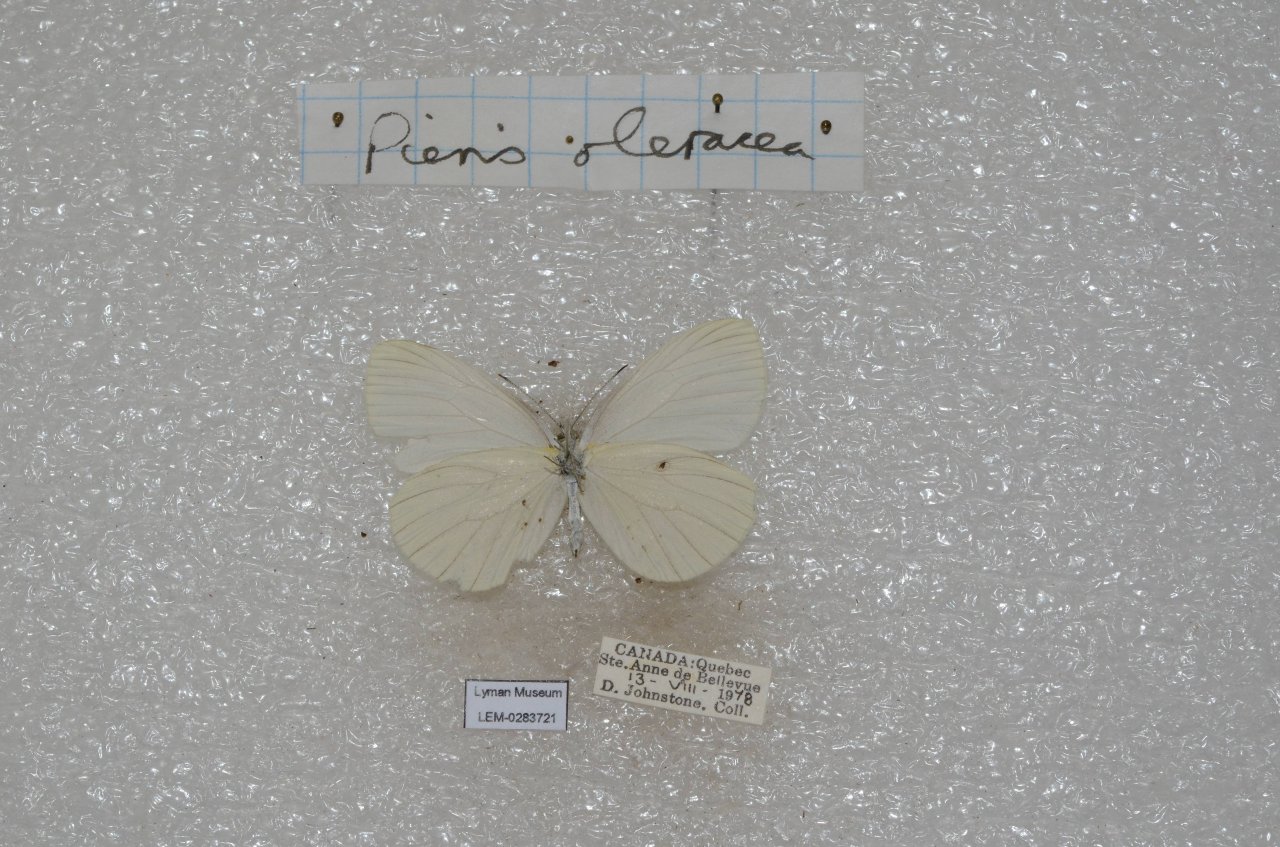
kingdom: Animalia
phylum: Arthropoda
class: Insecta
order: Lepidoptera
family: Pieridae
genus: Pieris
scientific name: Pieris oleracea
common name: Mustard White
